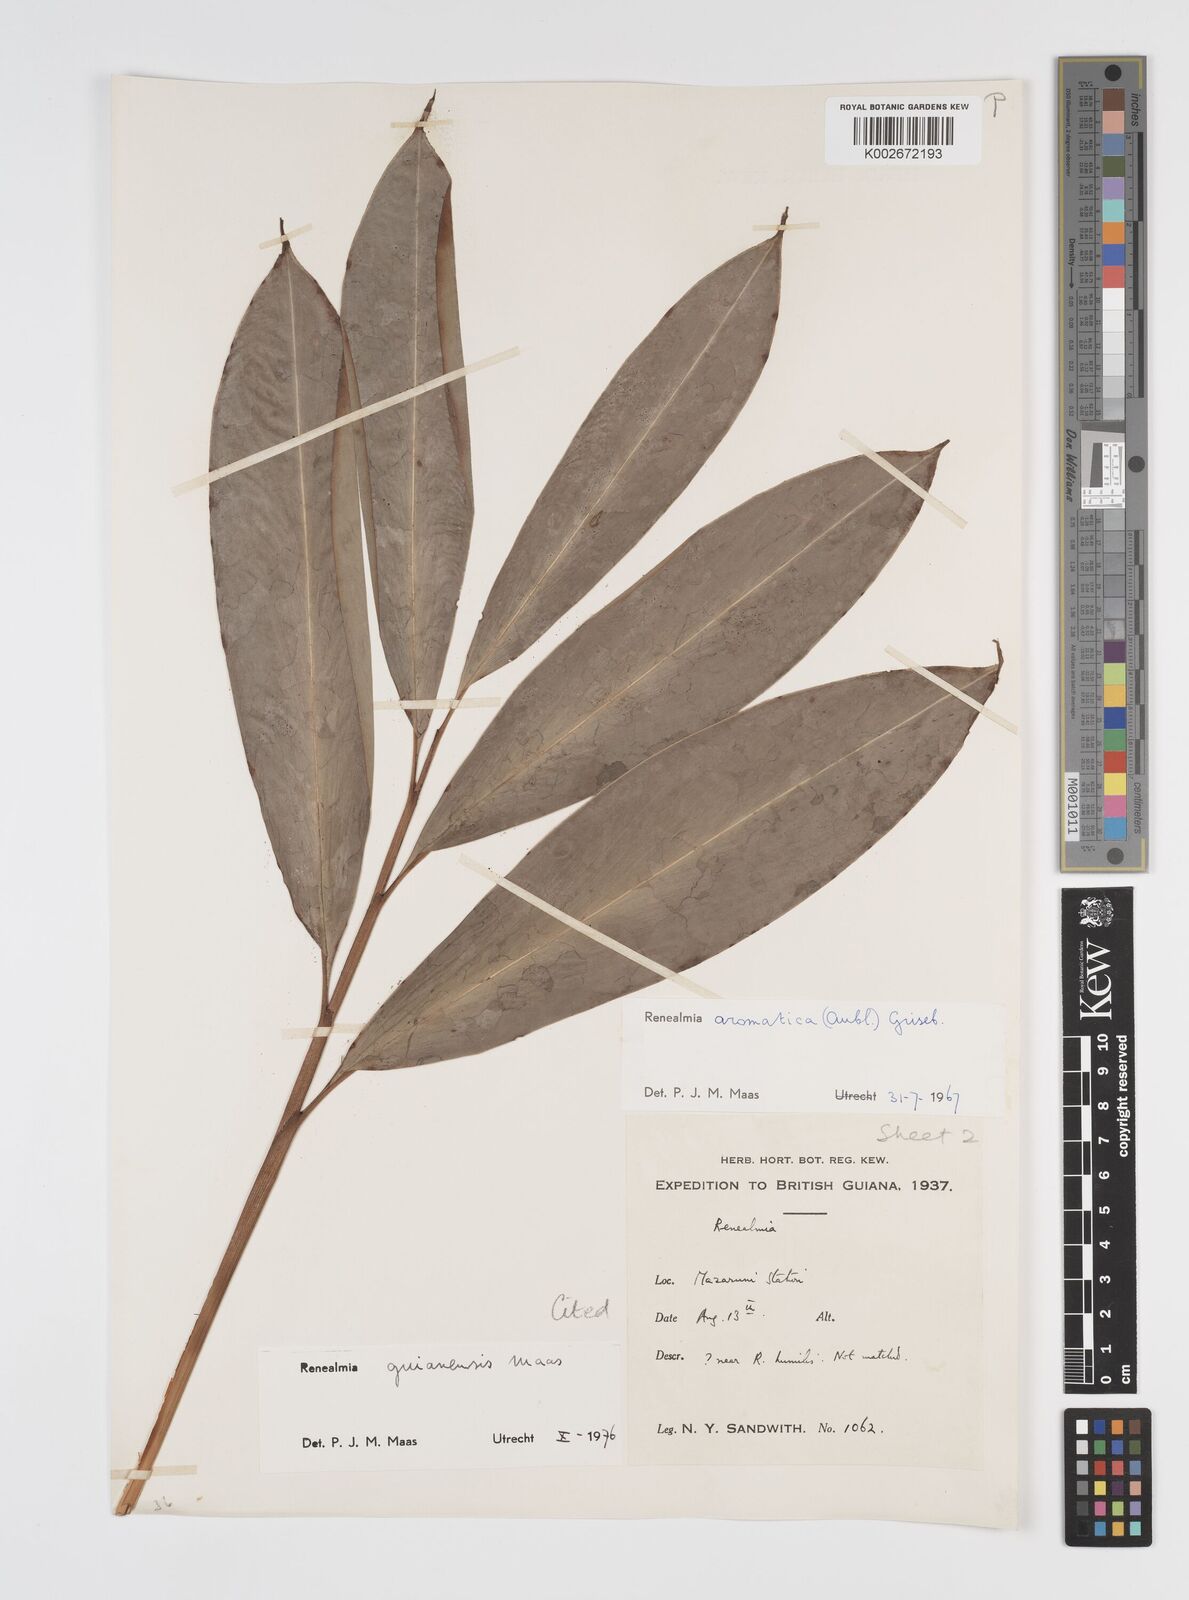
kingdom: Plantae
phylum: Tracheophyta
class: Liliopsida
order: Zingiberales
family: Zingiberaceae
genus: Renealmia
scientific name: Renealmia guianensis
